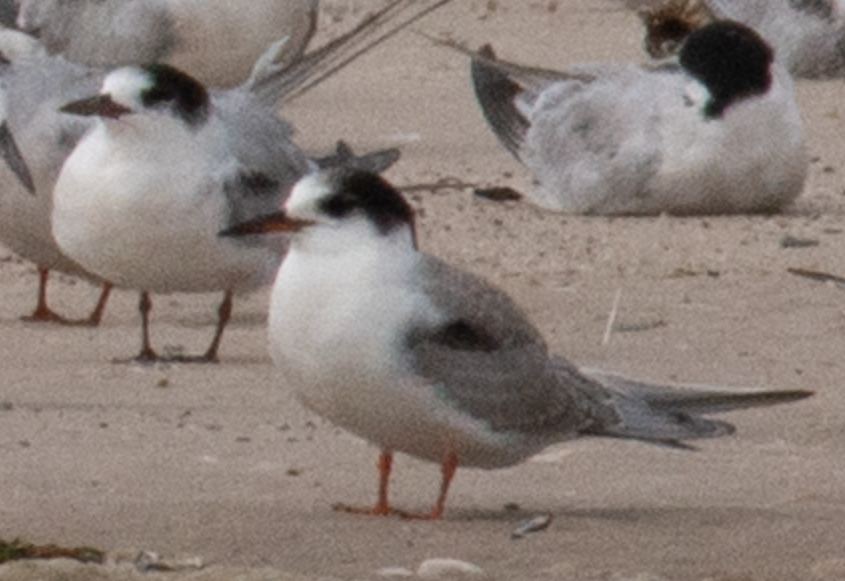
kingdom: Animalia
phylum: Chordata
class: Aves
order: Charadriiformes
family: Laridae
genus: Sterna
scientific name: Sterna hirundo
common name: Fjordterne
